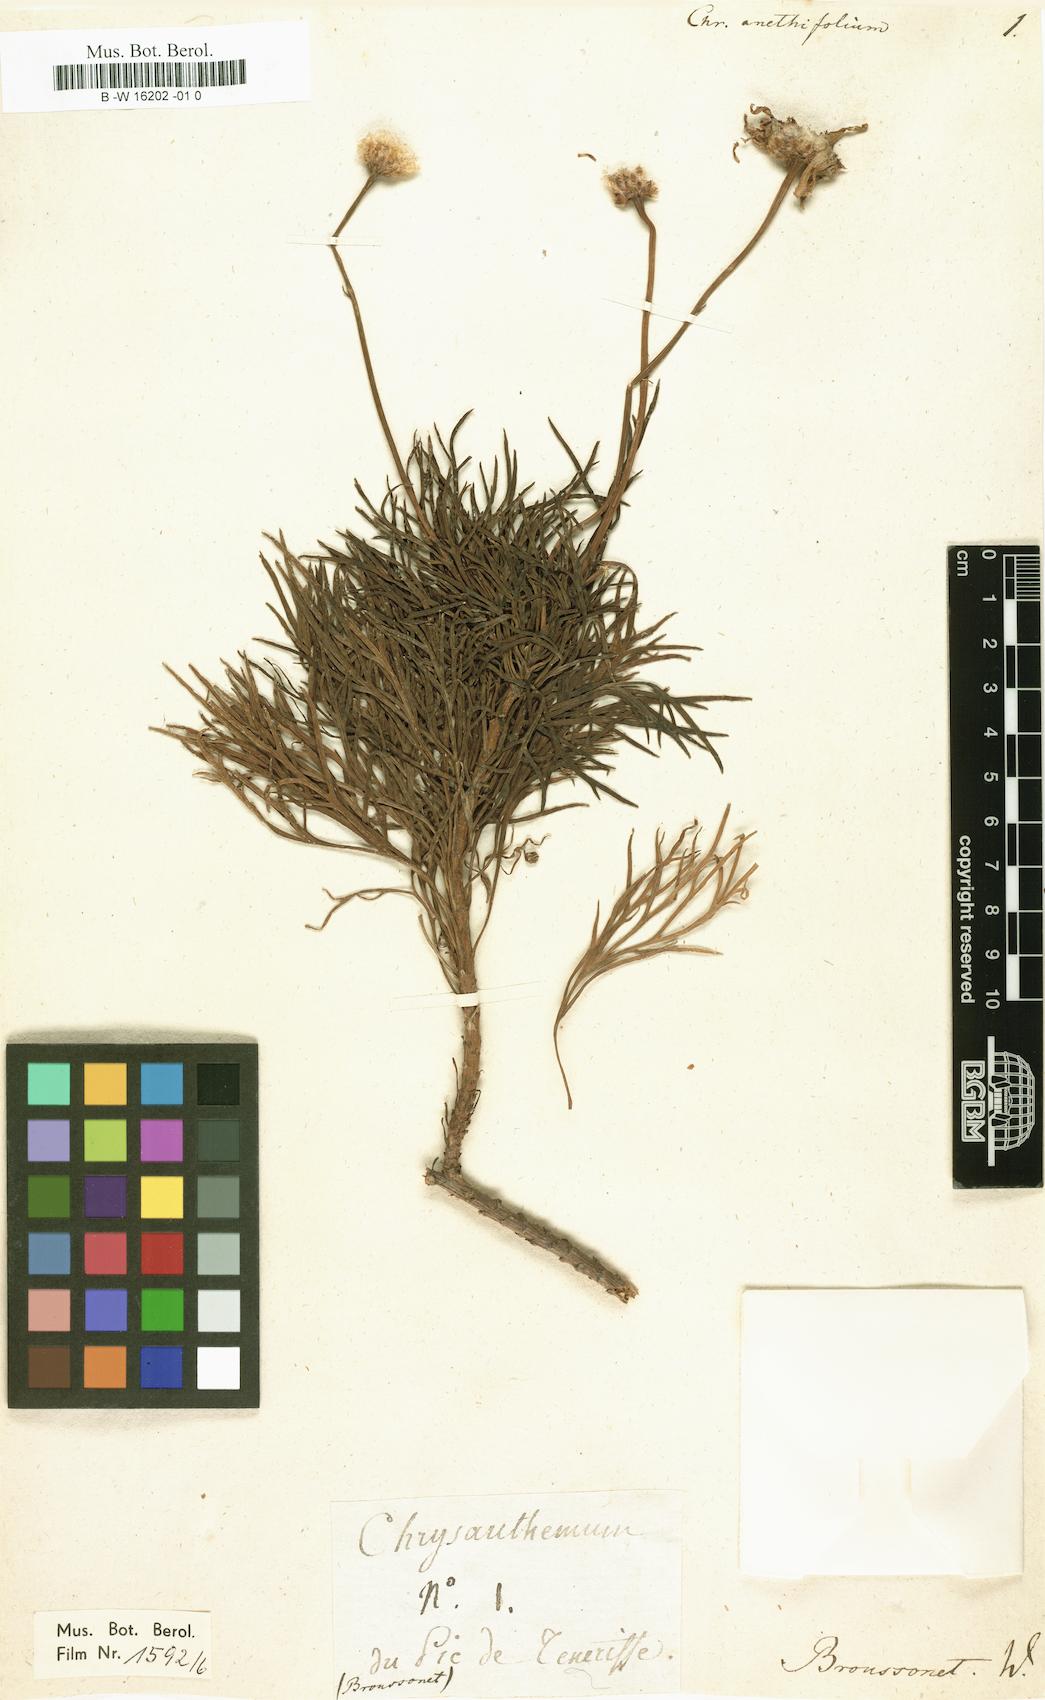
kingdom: Plantae
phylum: Tracheophyta
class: Magnoliopsida
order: Asterales
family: Asteraceae
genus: Argyranthemum
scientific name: Argyranthemum tenerifae
